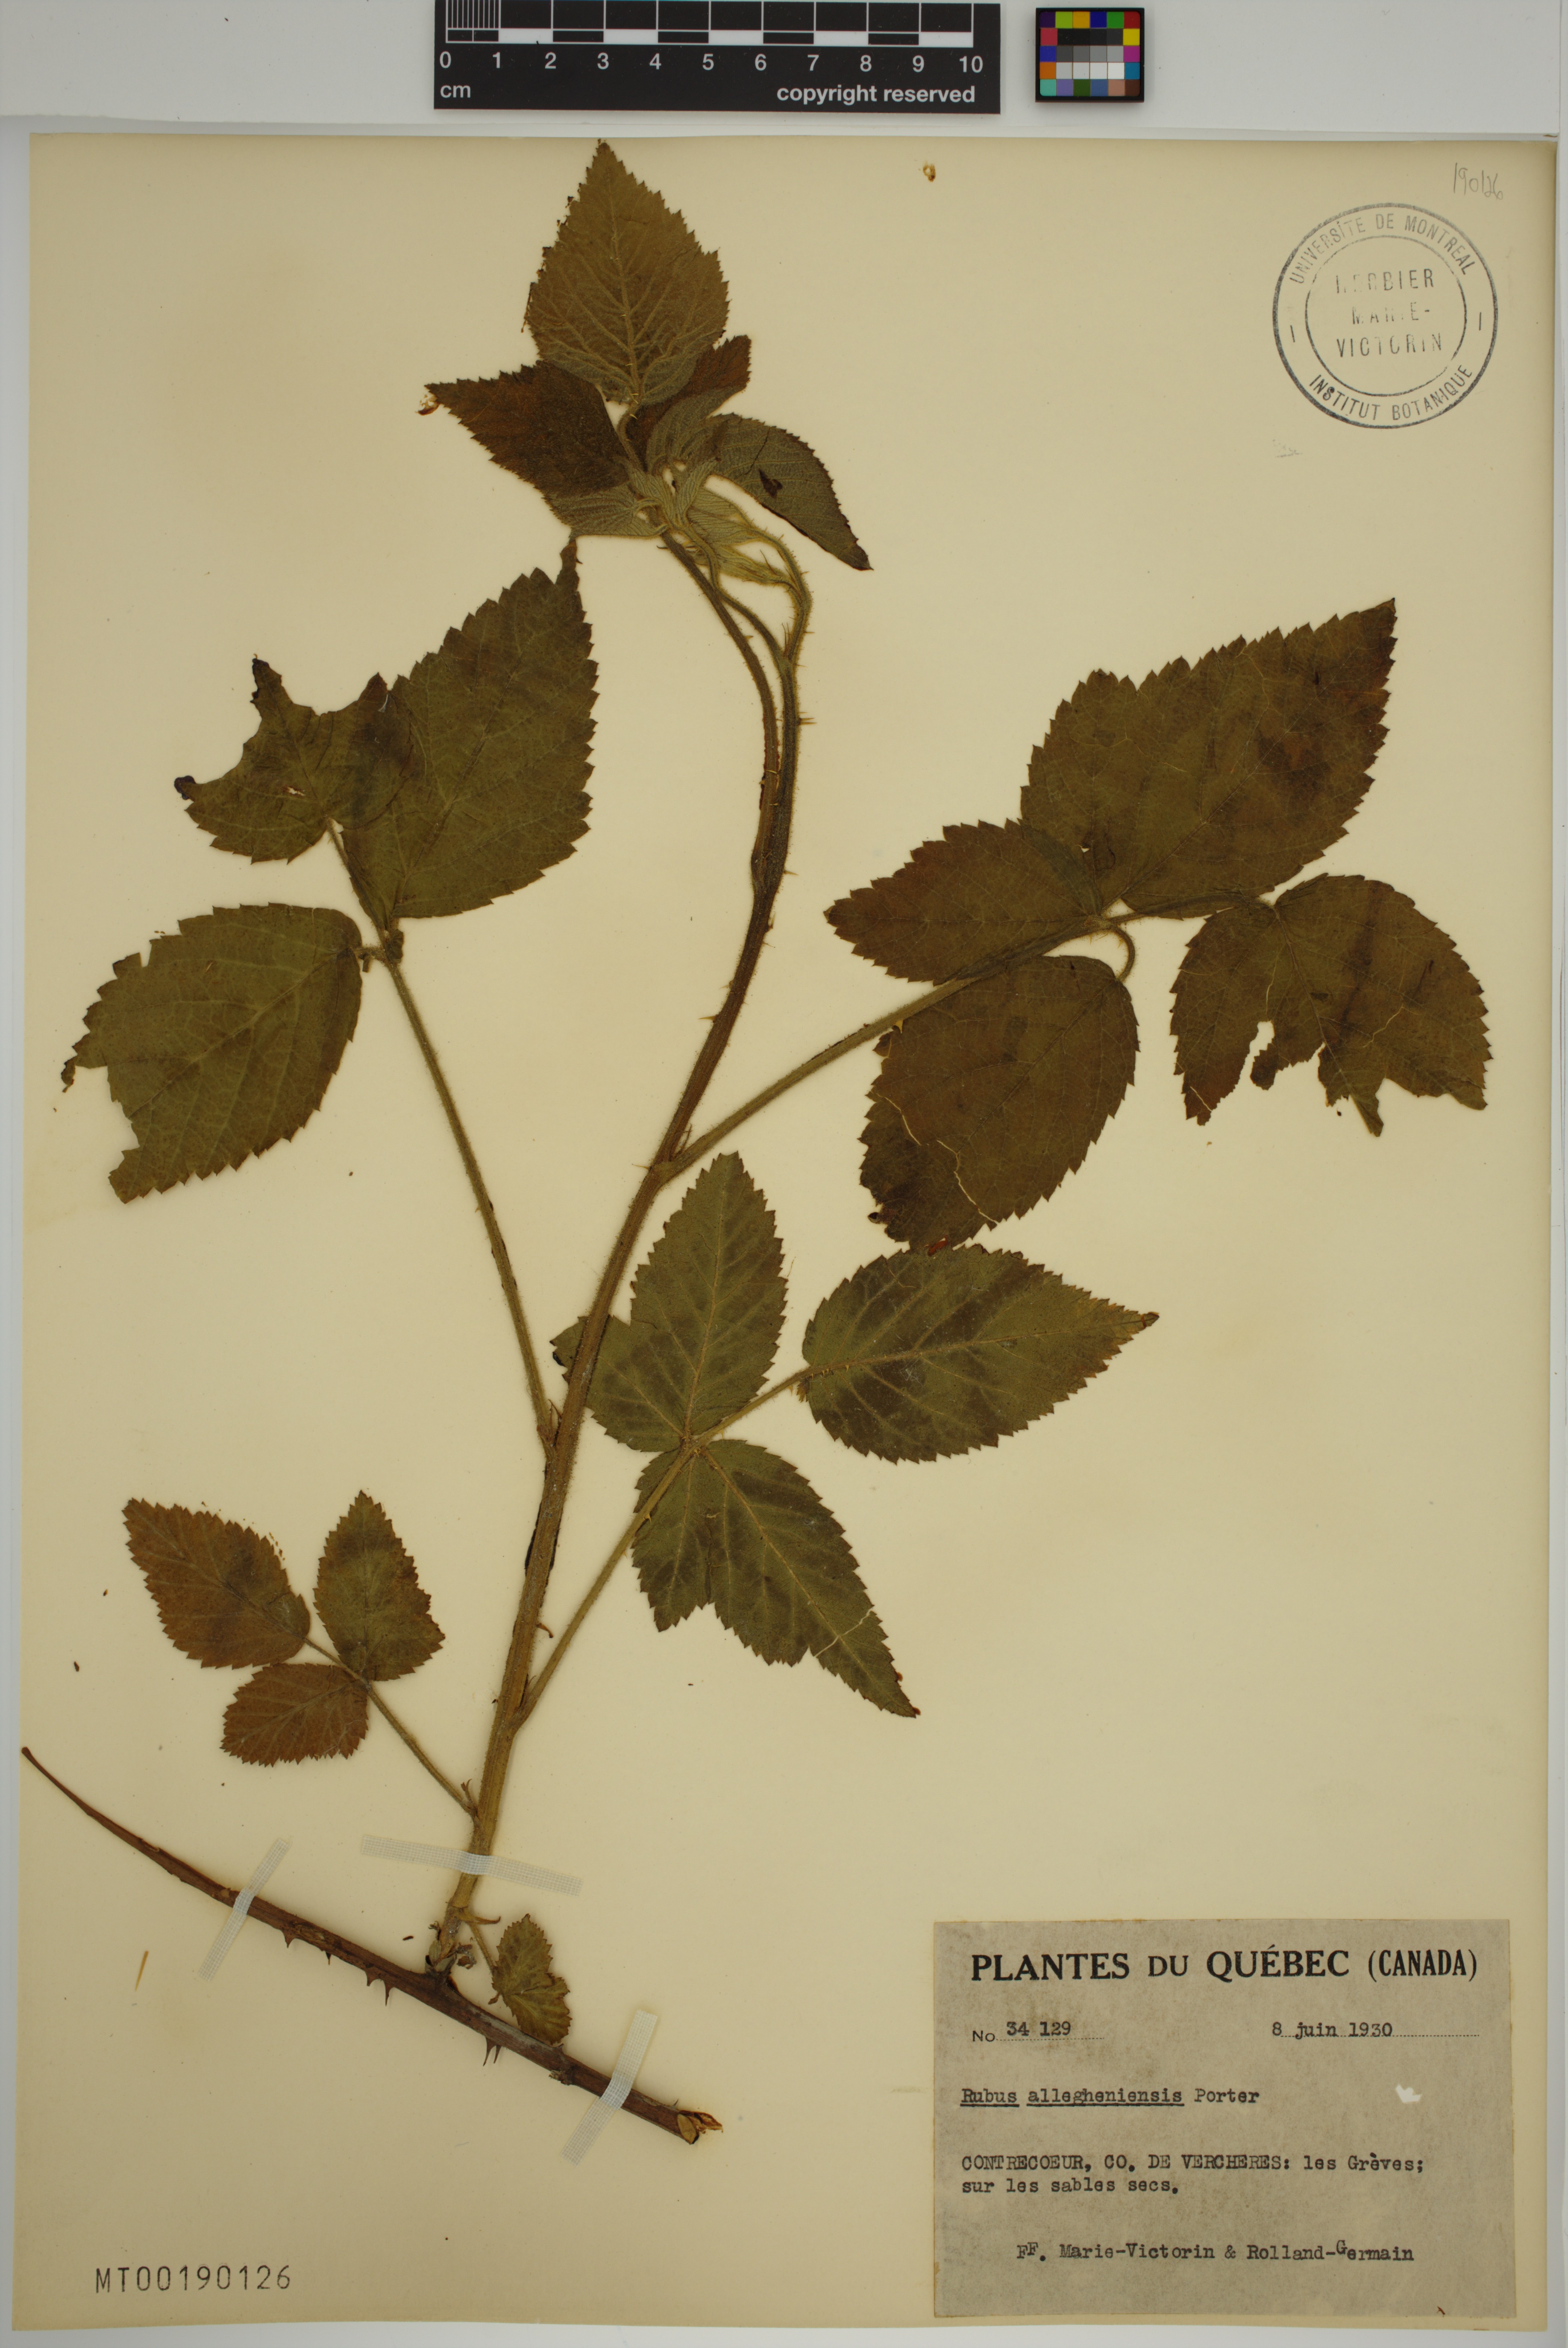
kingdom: Plantae
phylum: Tracheophyta
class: Magnoliopsida
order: Rosales
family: Rosaceae
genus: Rubus
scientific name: Rubus allegheniensis
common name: Allegheny blackberry
